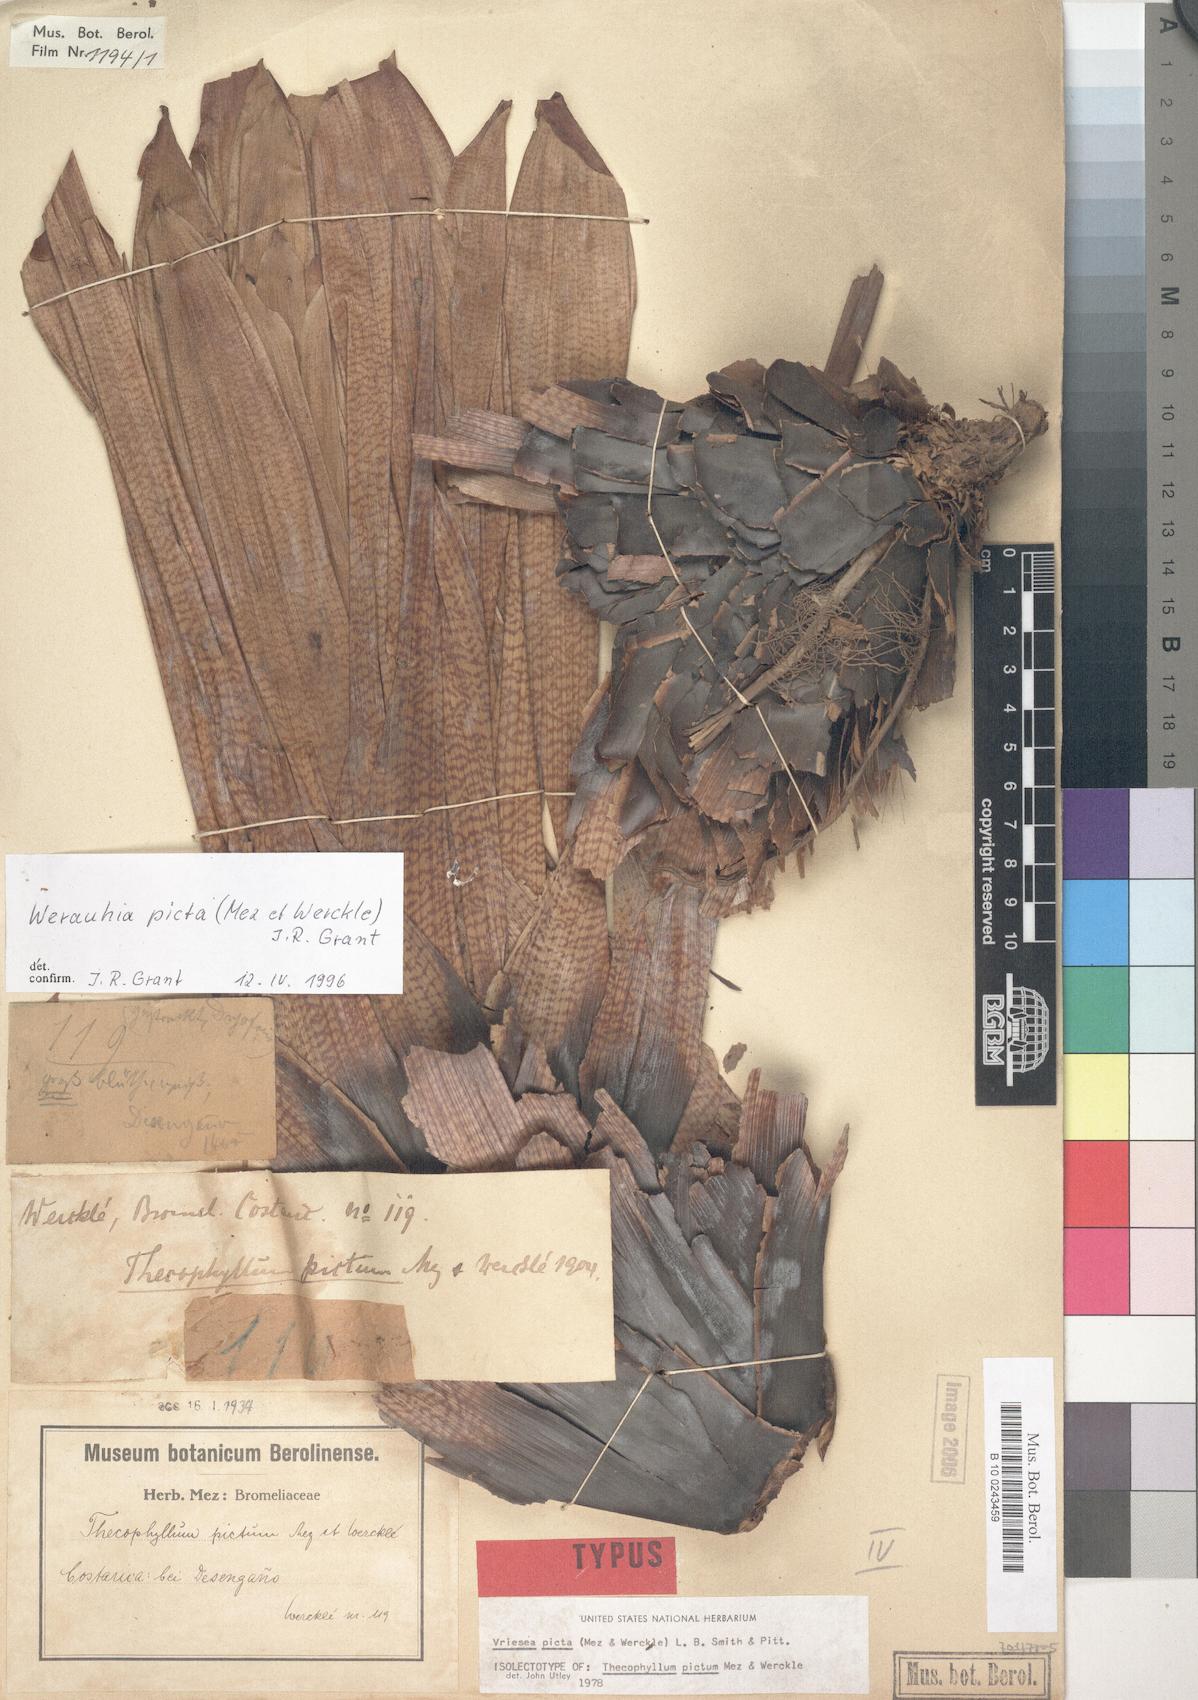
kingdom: Plantae
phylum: Tracheophyta
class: Liliopsida
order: Poales
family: Bromeliaceae
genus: Werauhia
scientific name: Werauhia picta
